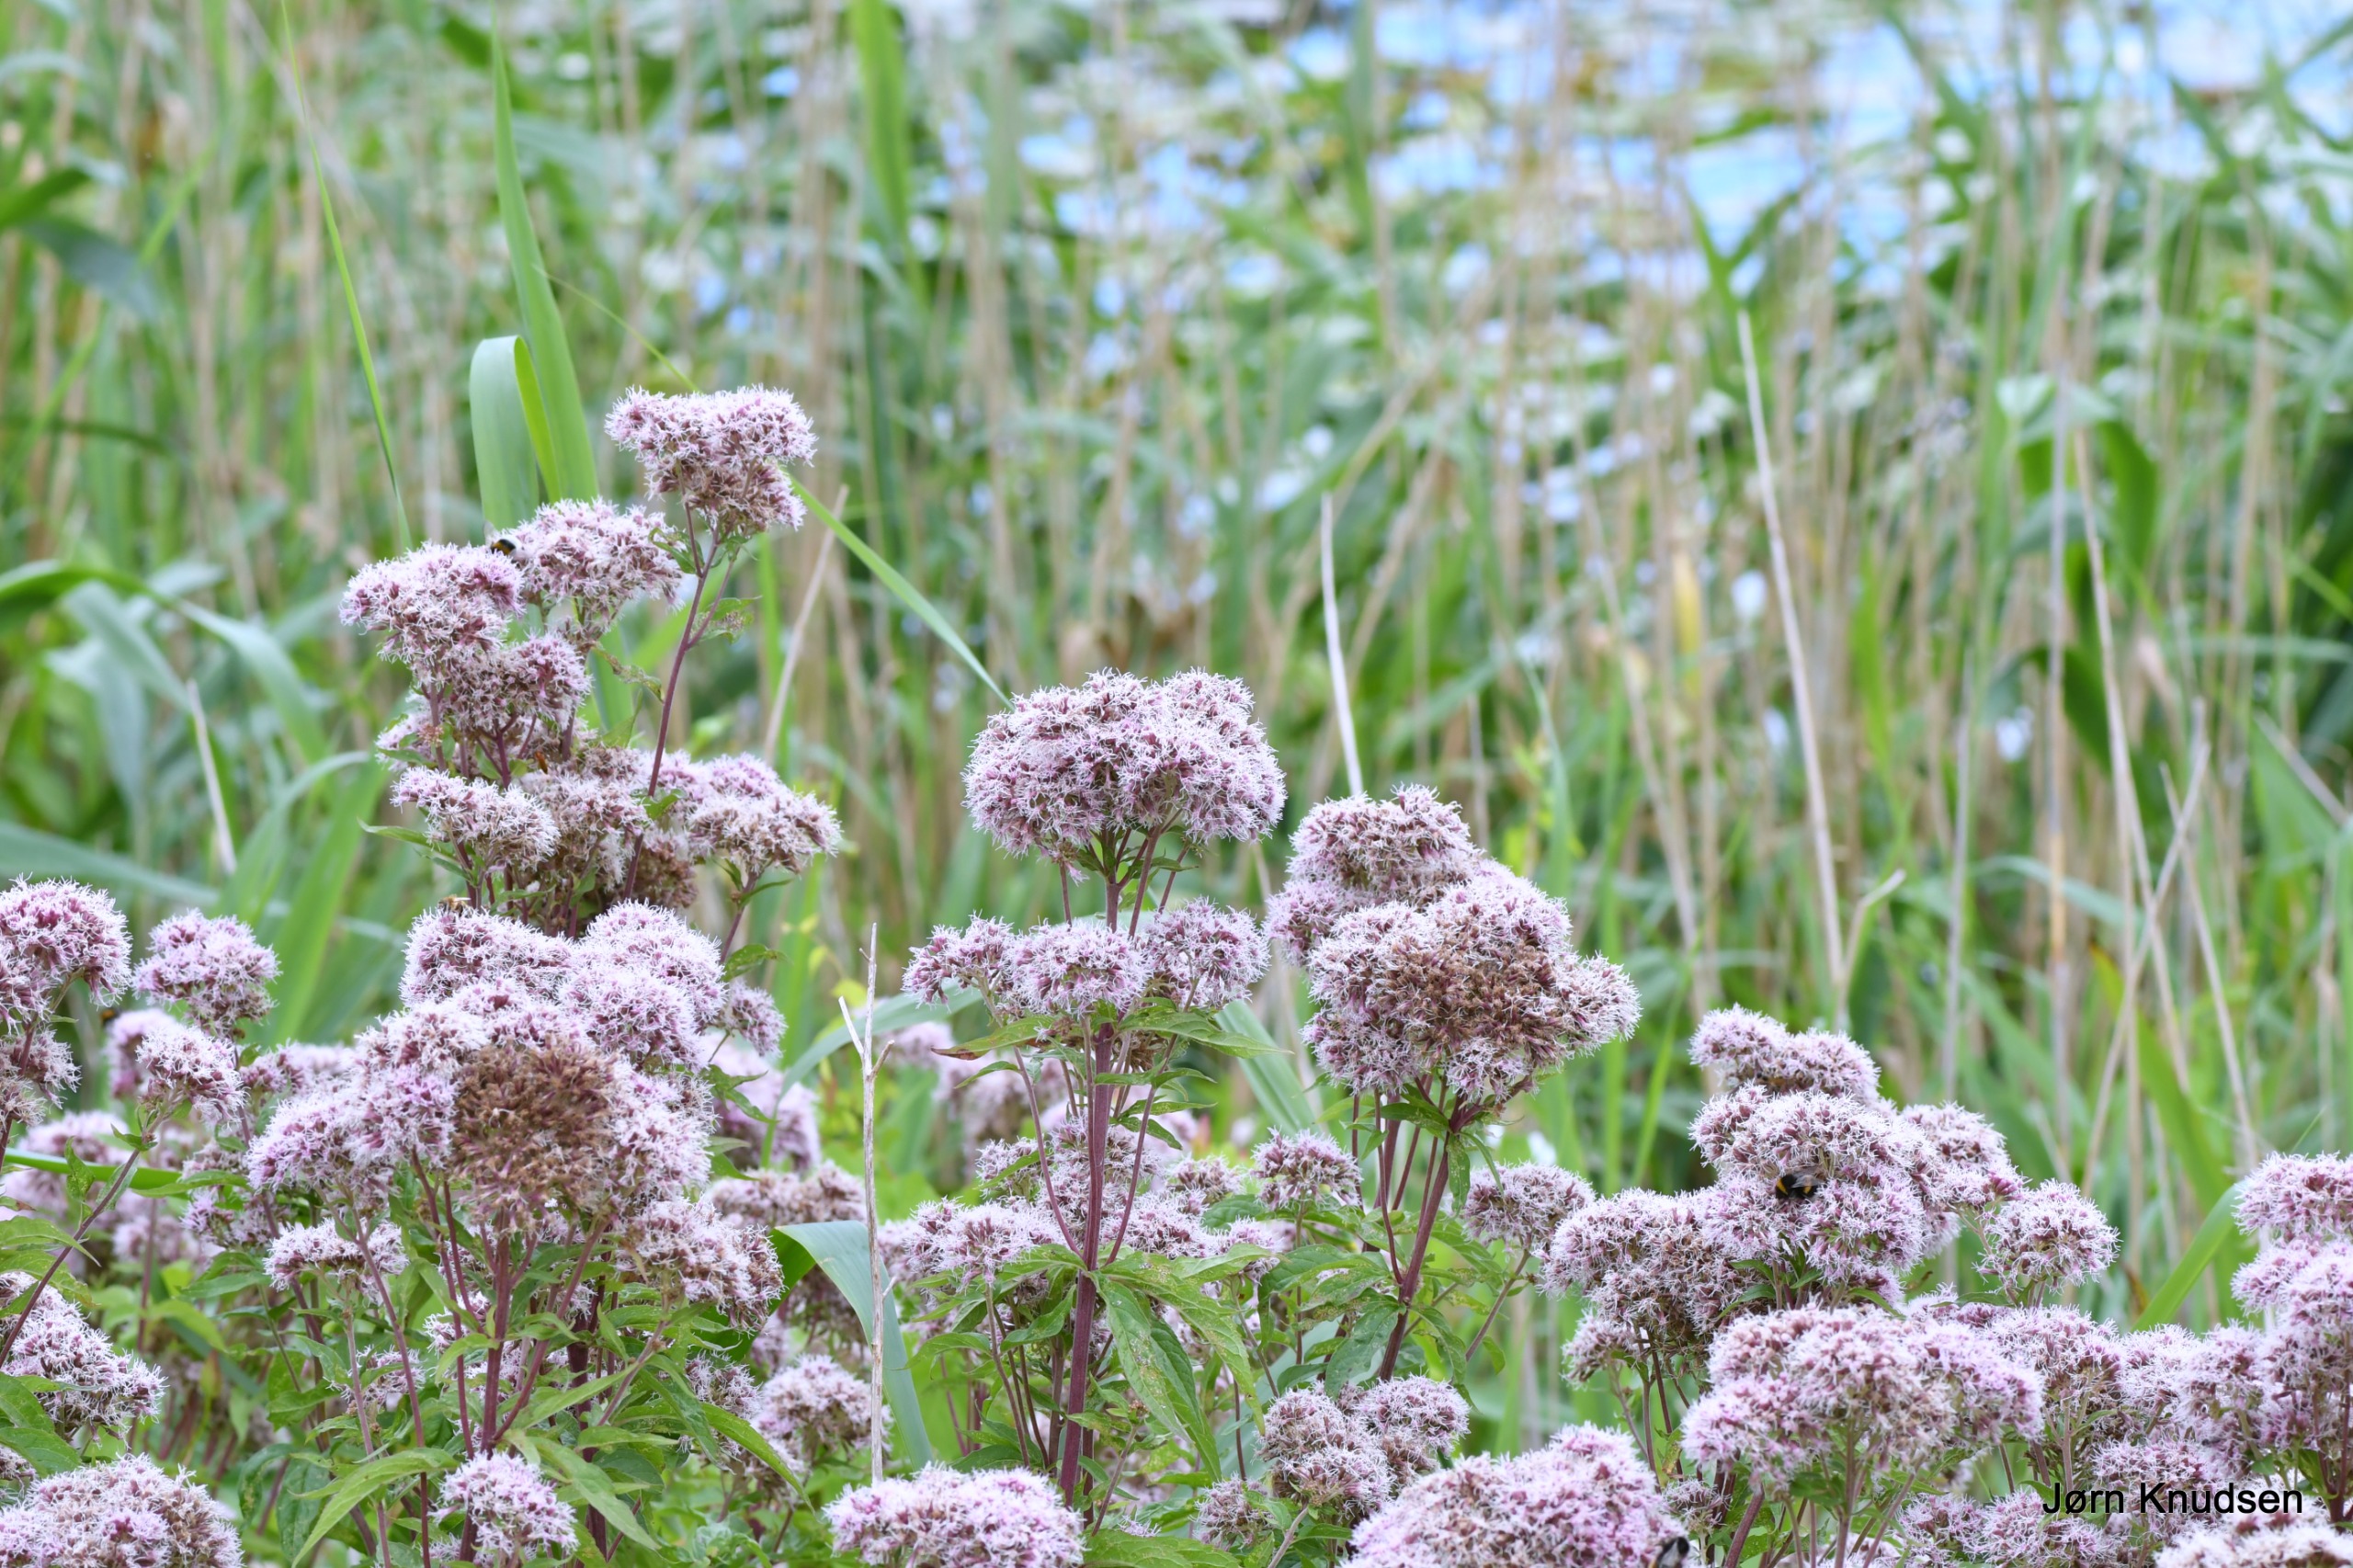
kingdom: Plantae
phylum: Tracheophyta
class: Magnoliopsida
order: Asterales
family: Asteraceae
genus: Eupatorium
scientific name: Eupatorium cannabinum
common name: Hjortetrøst
